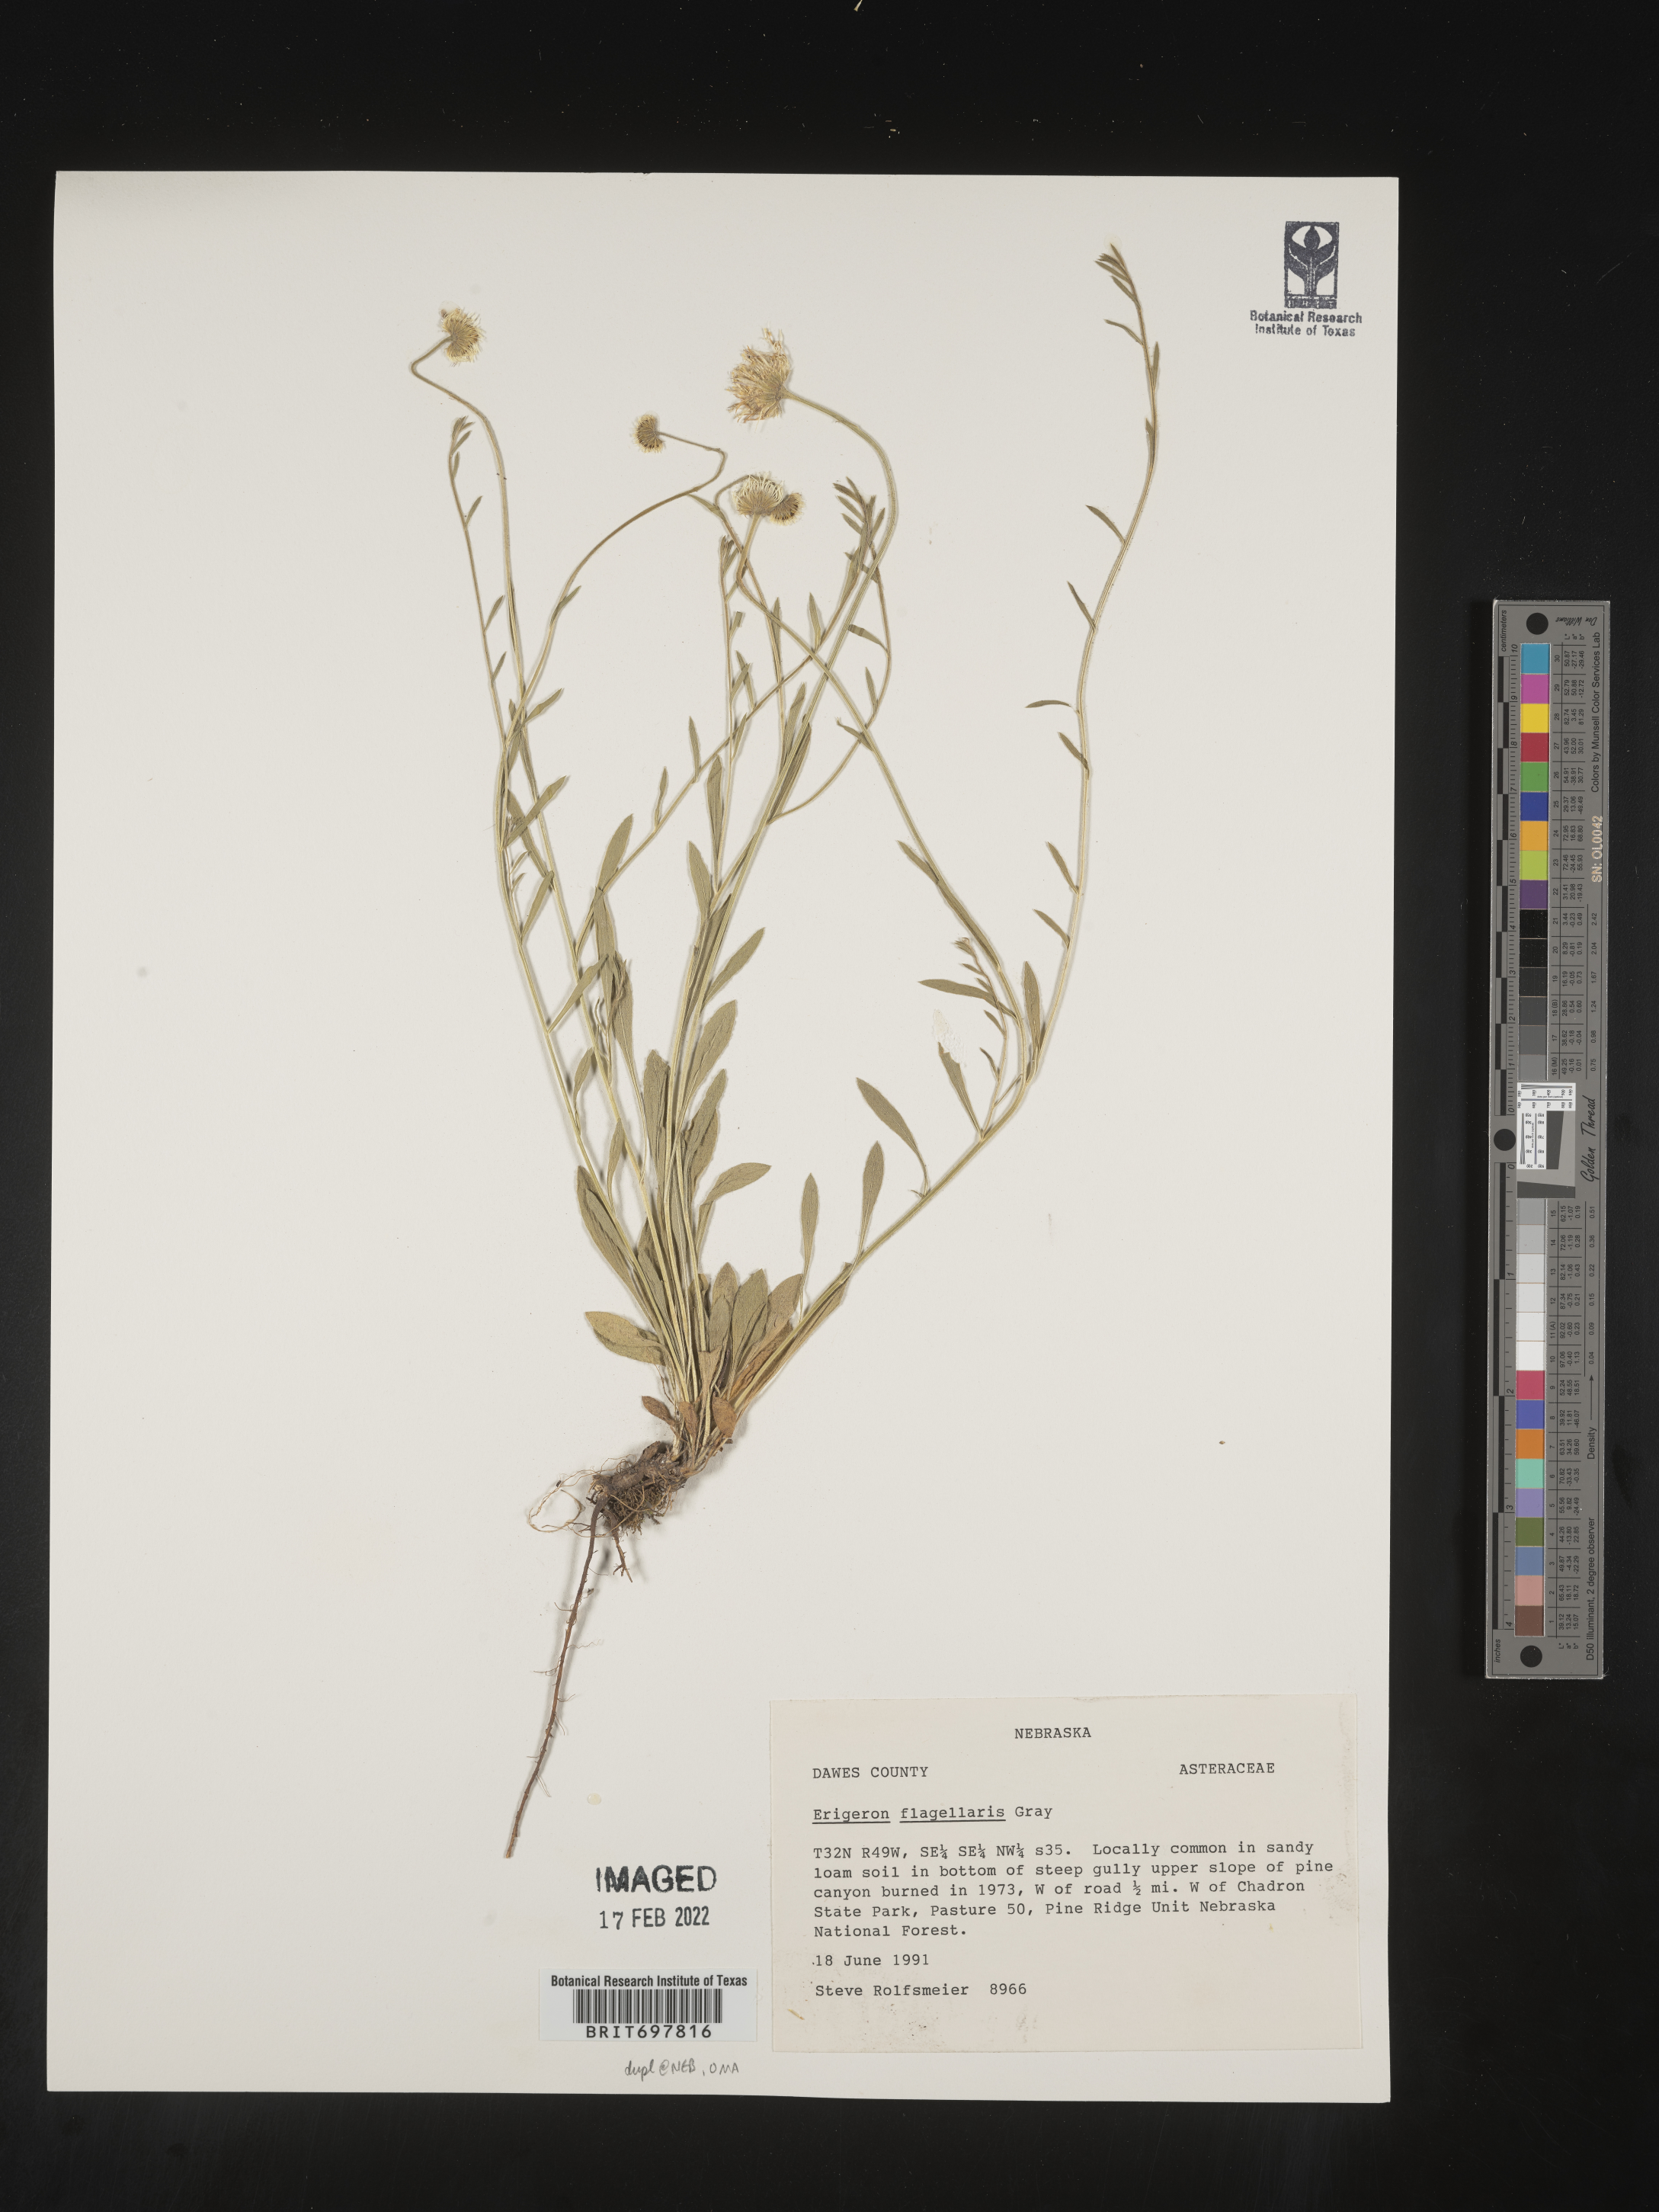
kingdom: Plantae
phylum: Tracheophyta
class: Magnoliopsida
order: Asterales
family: Asteraceae
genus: Erigeron
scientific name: Erigeron flagellaris
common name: Running fleabane
